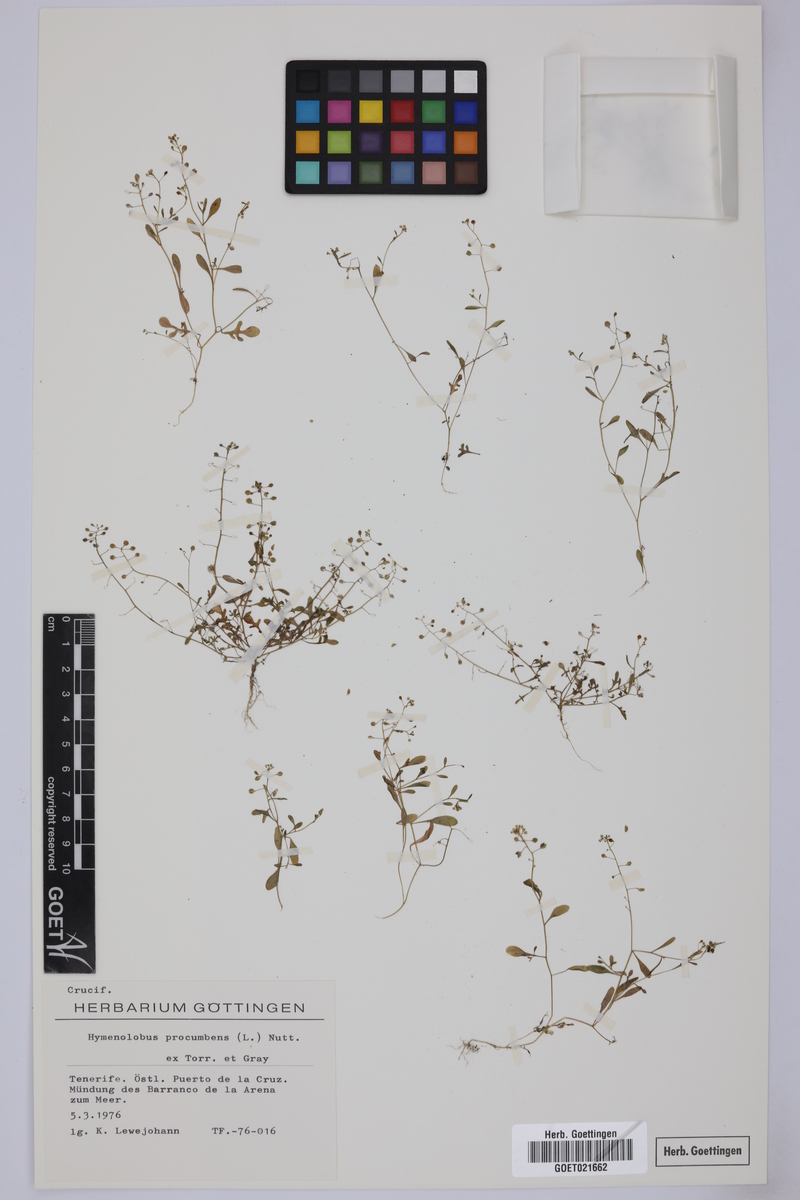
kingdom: Plantae
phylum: Tracheophyta
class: Magnoliopsida
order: Brassicales
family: Brassicaceae
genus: Hornungia
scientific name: Hornungia procumbens
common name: Oval purse
